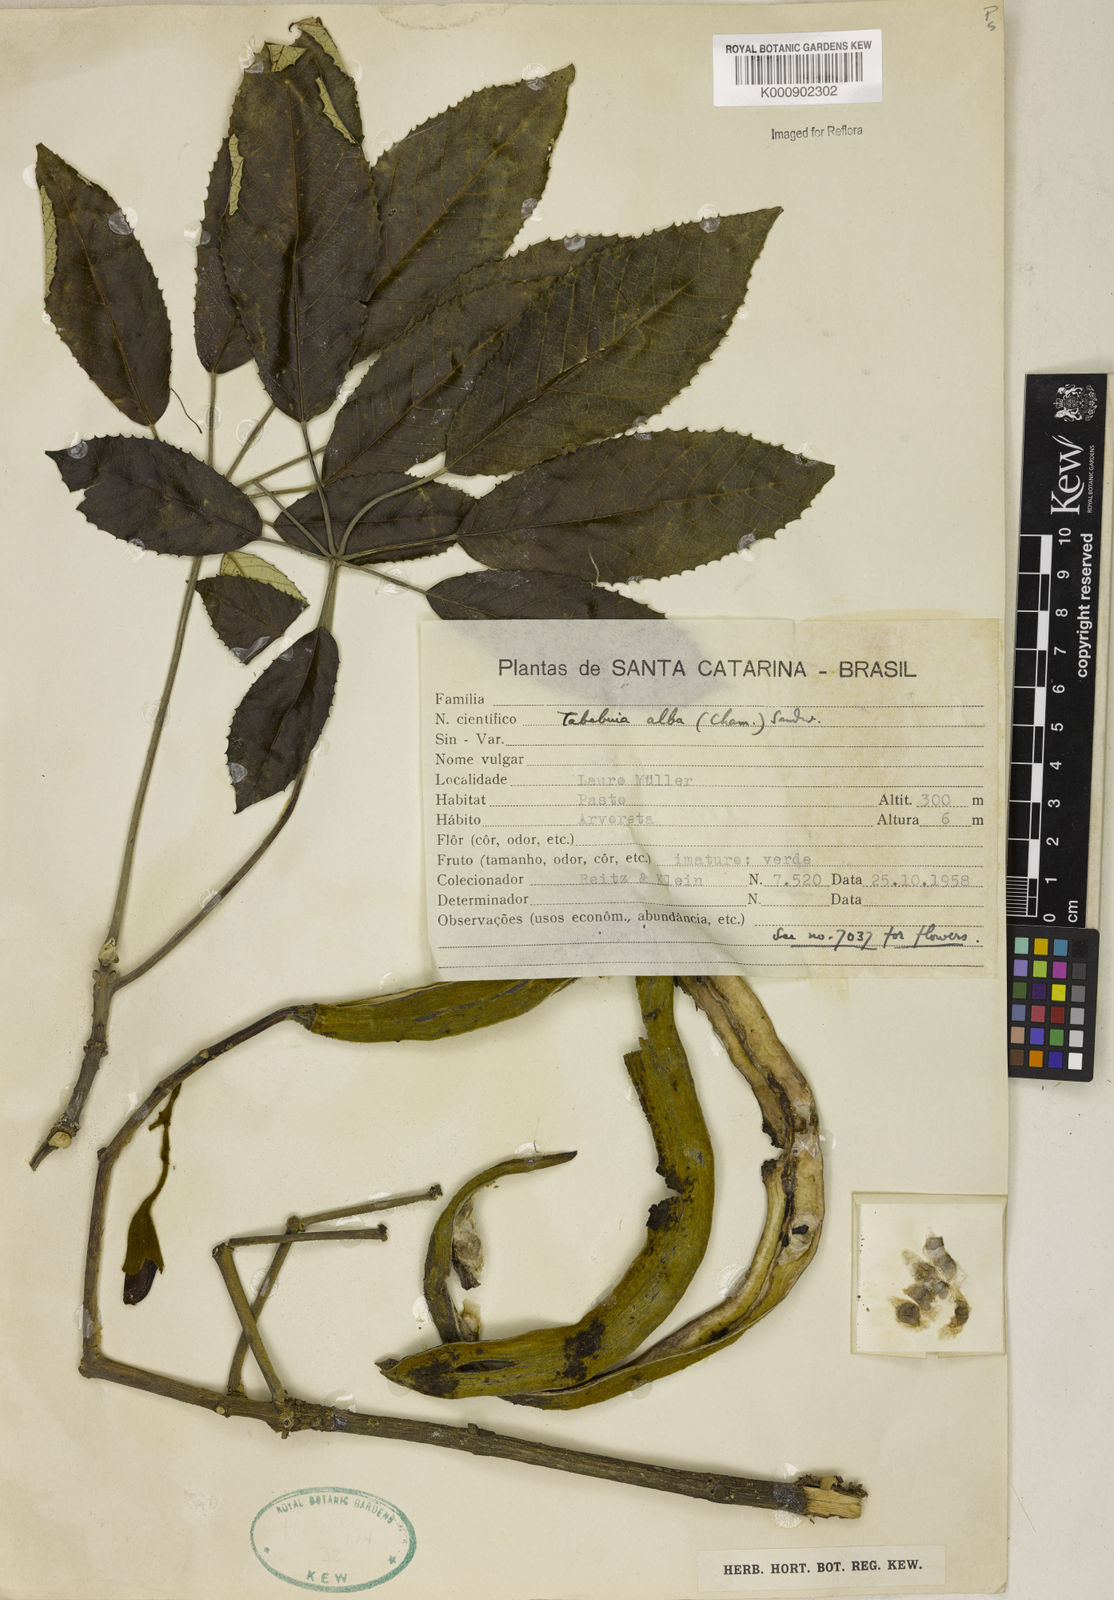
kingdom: Plantae
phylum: Tracheophyta
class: Magnoliopsida
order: Lamiales
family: Bignoniaceae
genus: Handroanthus
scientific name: Handroanthus albus
